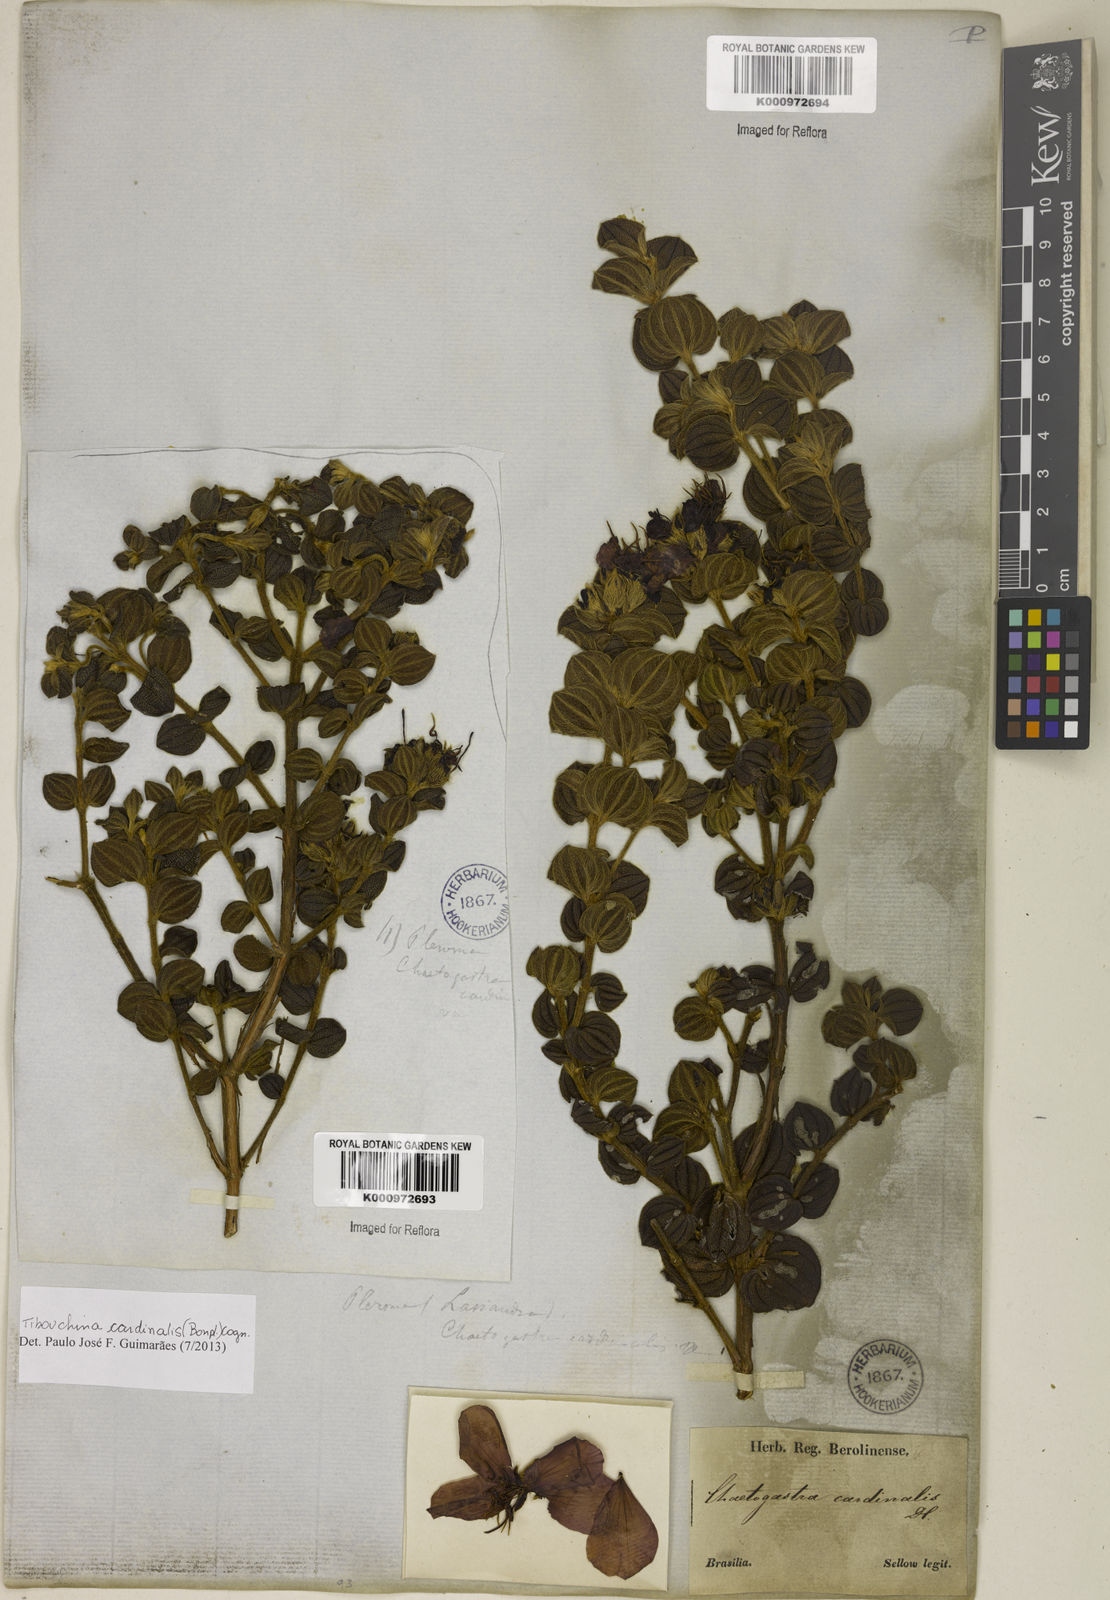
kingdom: Plantae
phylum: Tracheophyta
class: Magnoliopsida
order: Myrtales
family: Melastomataceae
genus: Chaetogastra
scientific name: Chaetogastra cardinalis
